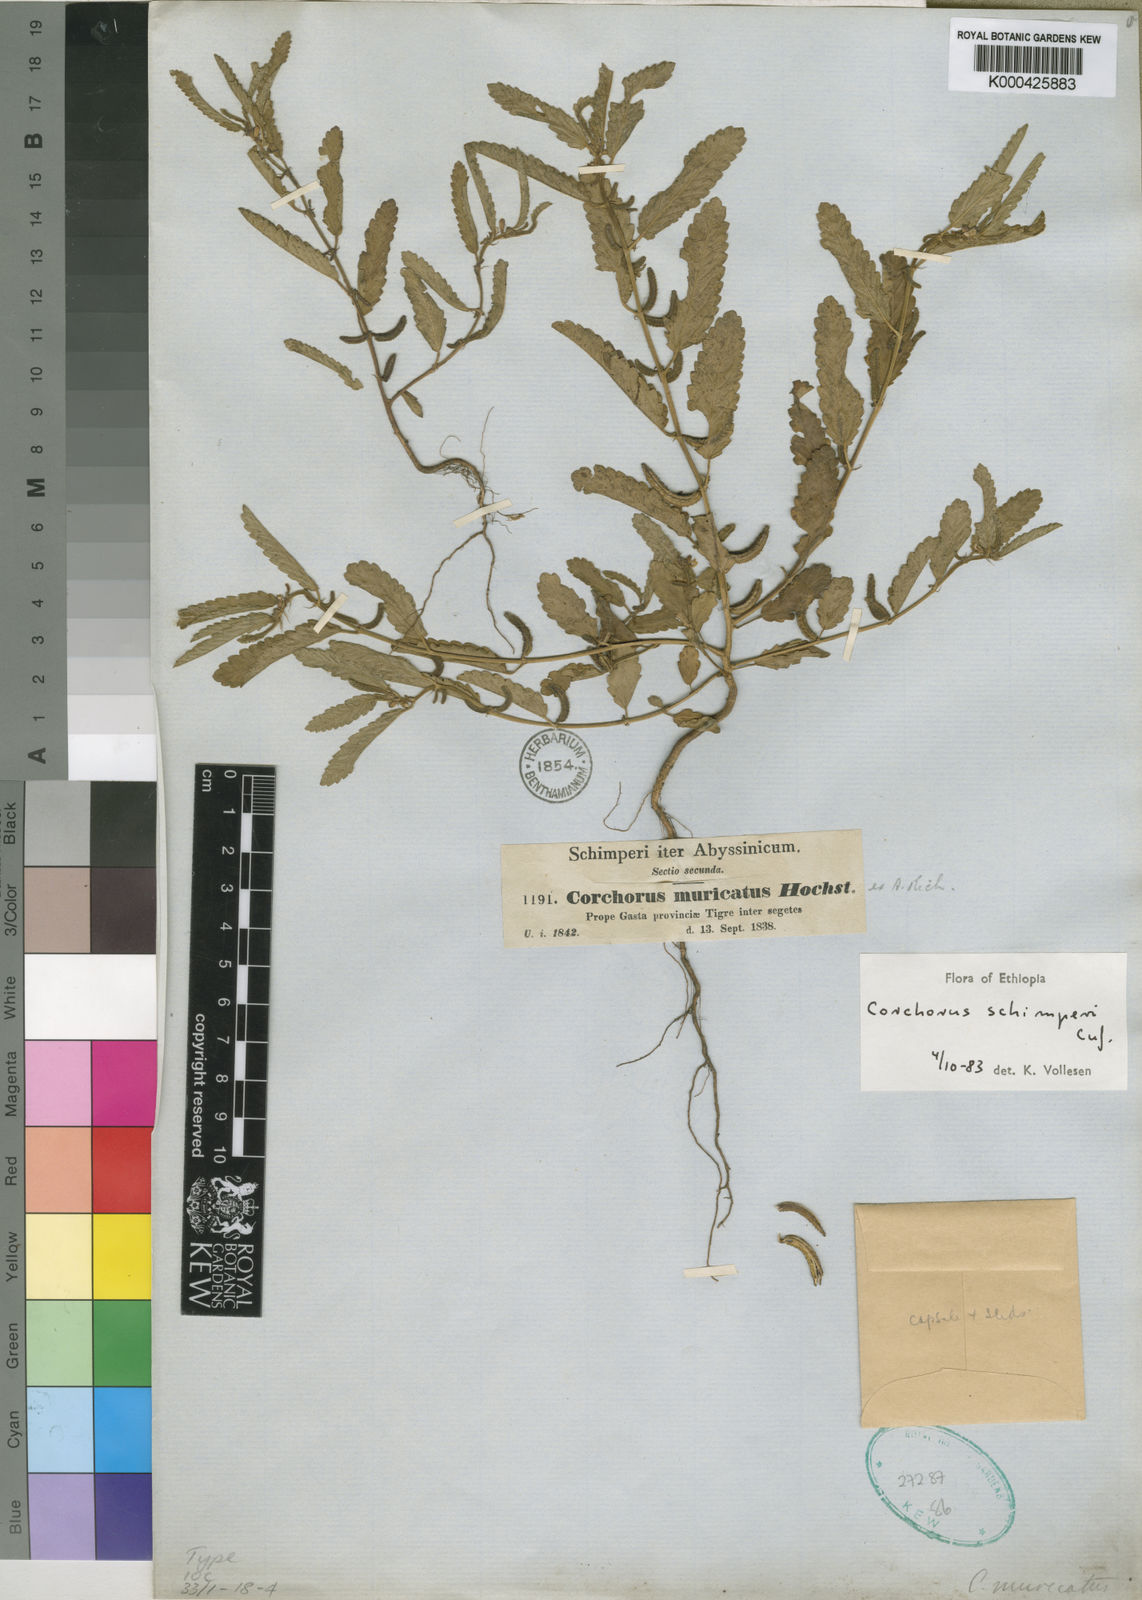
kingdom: Plantae
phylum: Tracheophyta
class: Magnoliopsida
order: Malvales
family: Malvaceae
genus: Corchorus
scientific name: Corchorus
